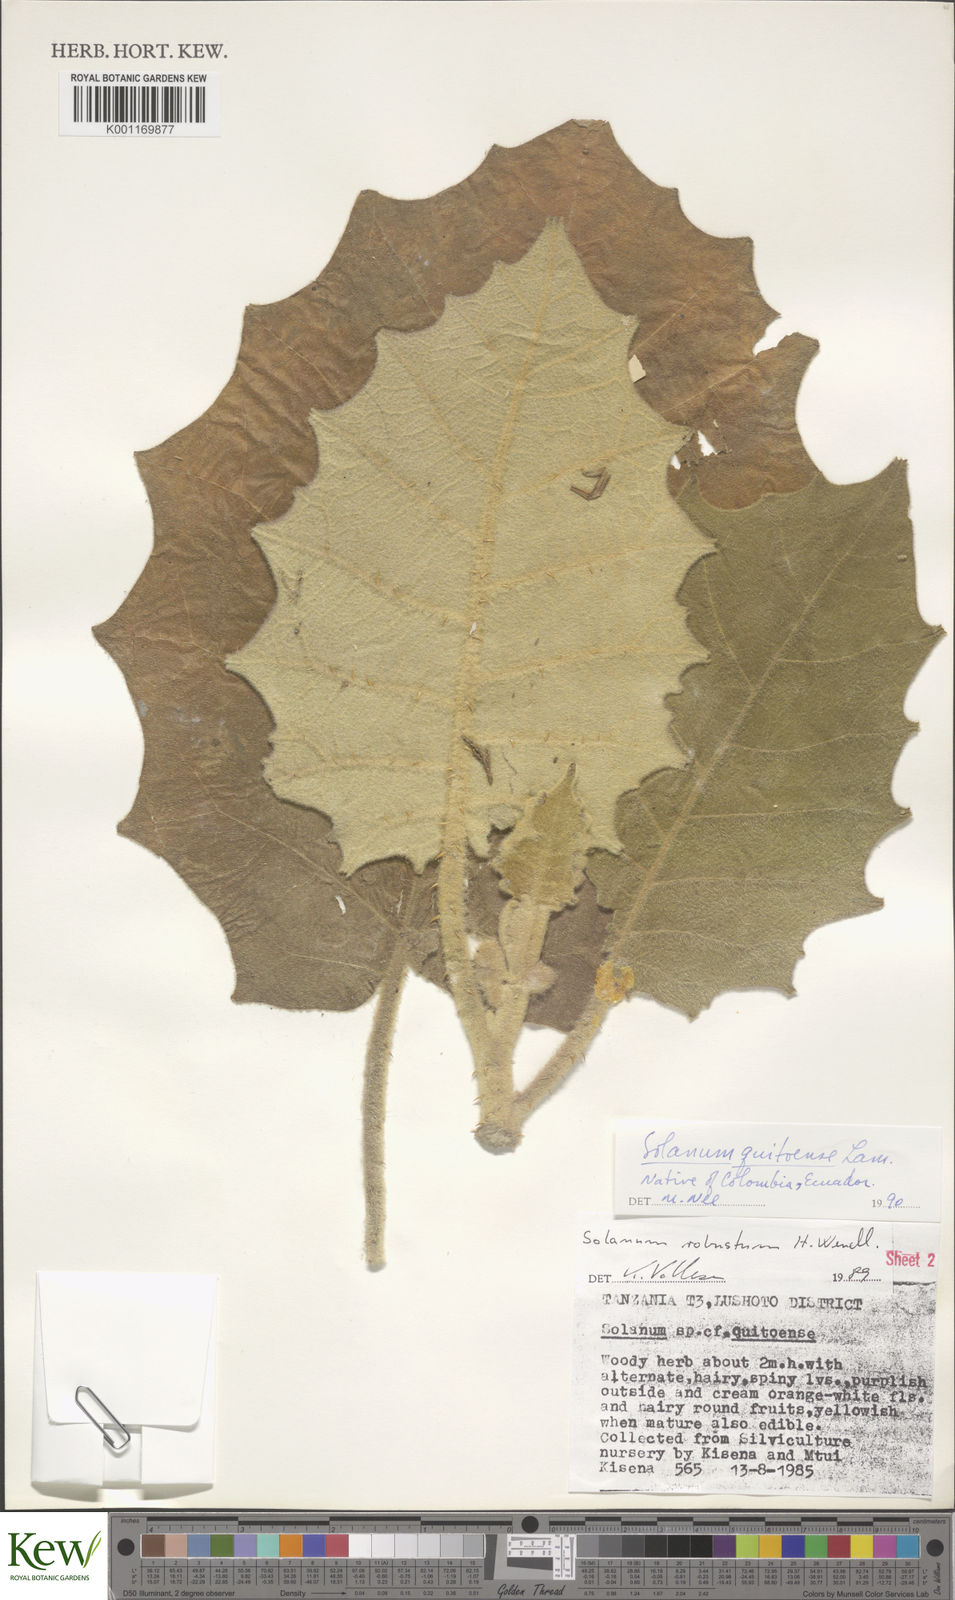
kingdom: Plantae
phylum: Tracheophyta
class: Magnoliopsida
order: Solanales
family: Solanaceae
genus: Solanum
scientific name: Solanum quitoense
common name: Quito-orange
